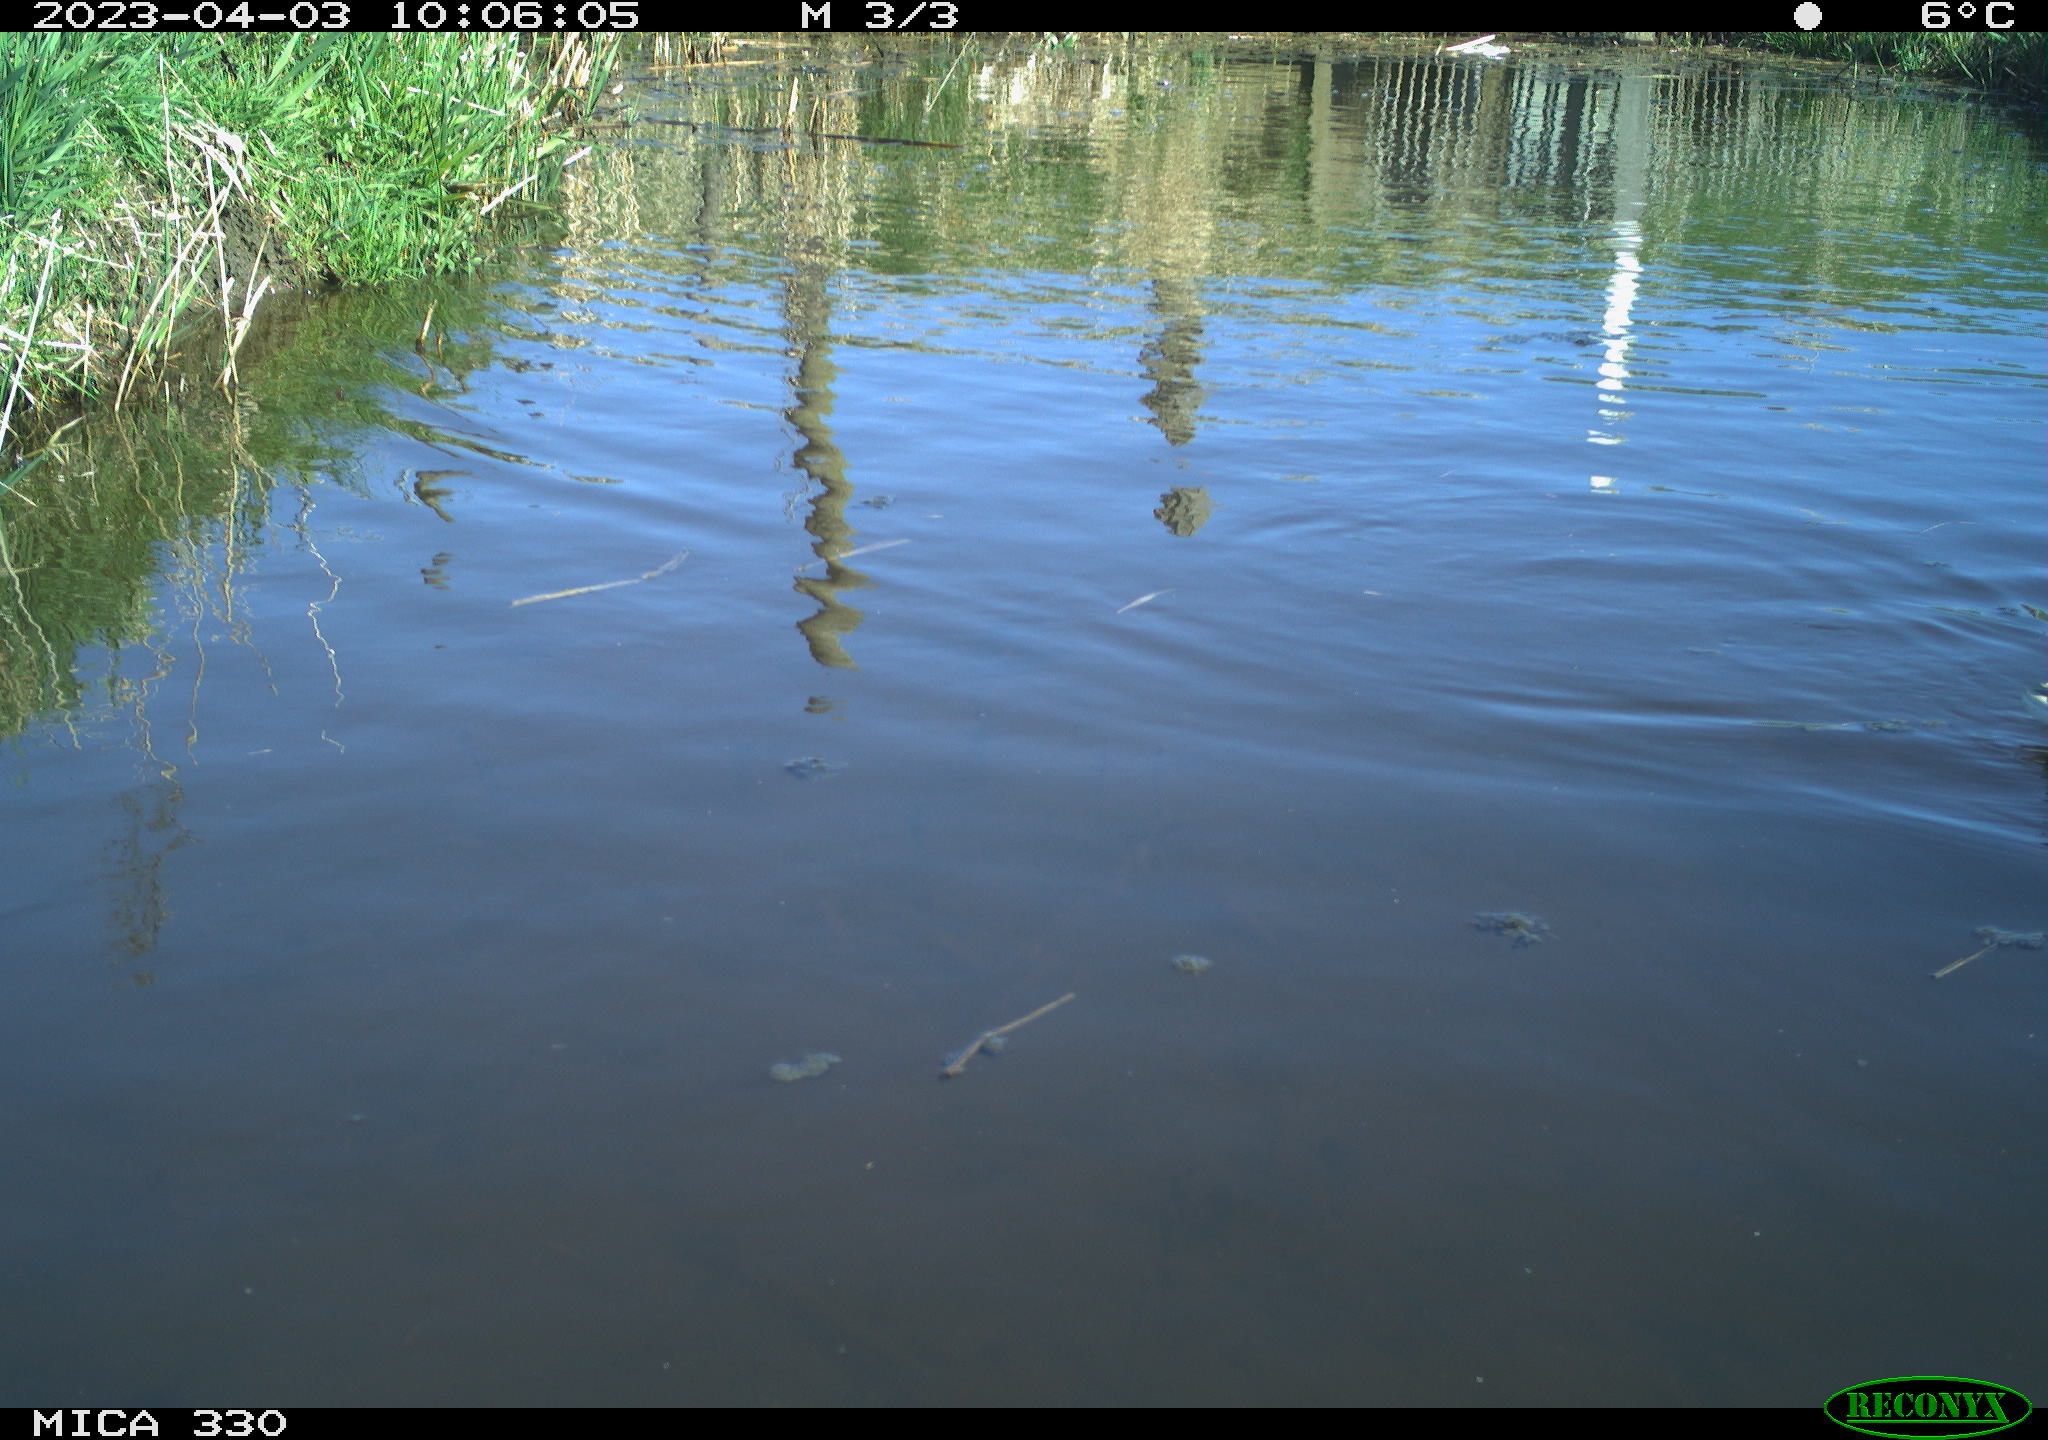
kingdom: Animalia
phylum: Chordata
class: Aves
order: Anseriformes
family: Anatidae
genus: Anas
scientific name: Anas
